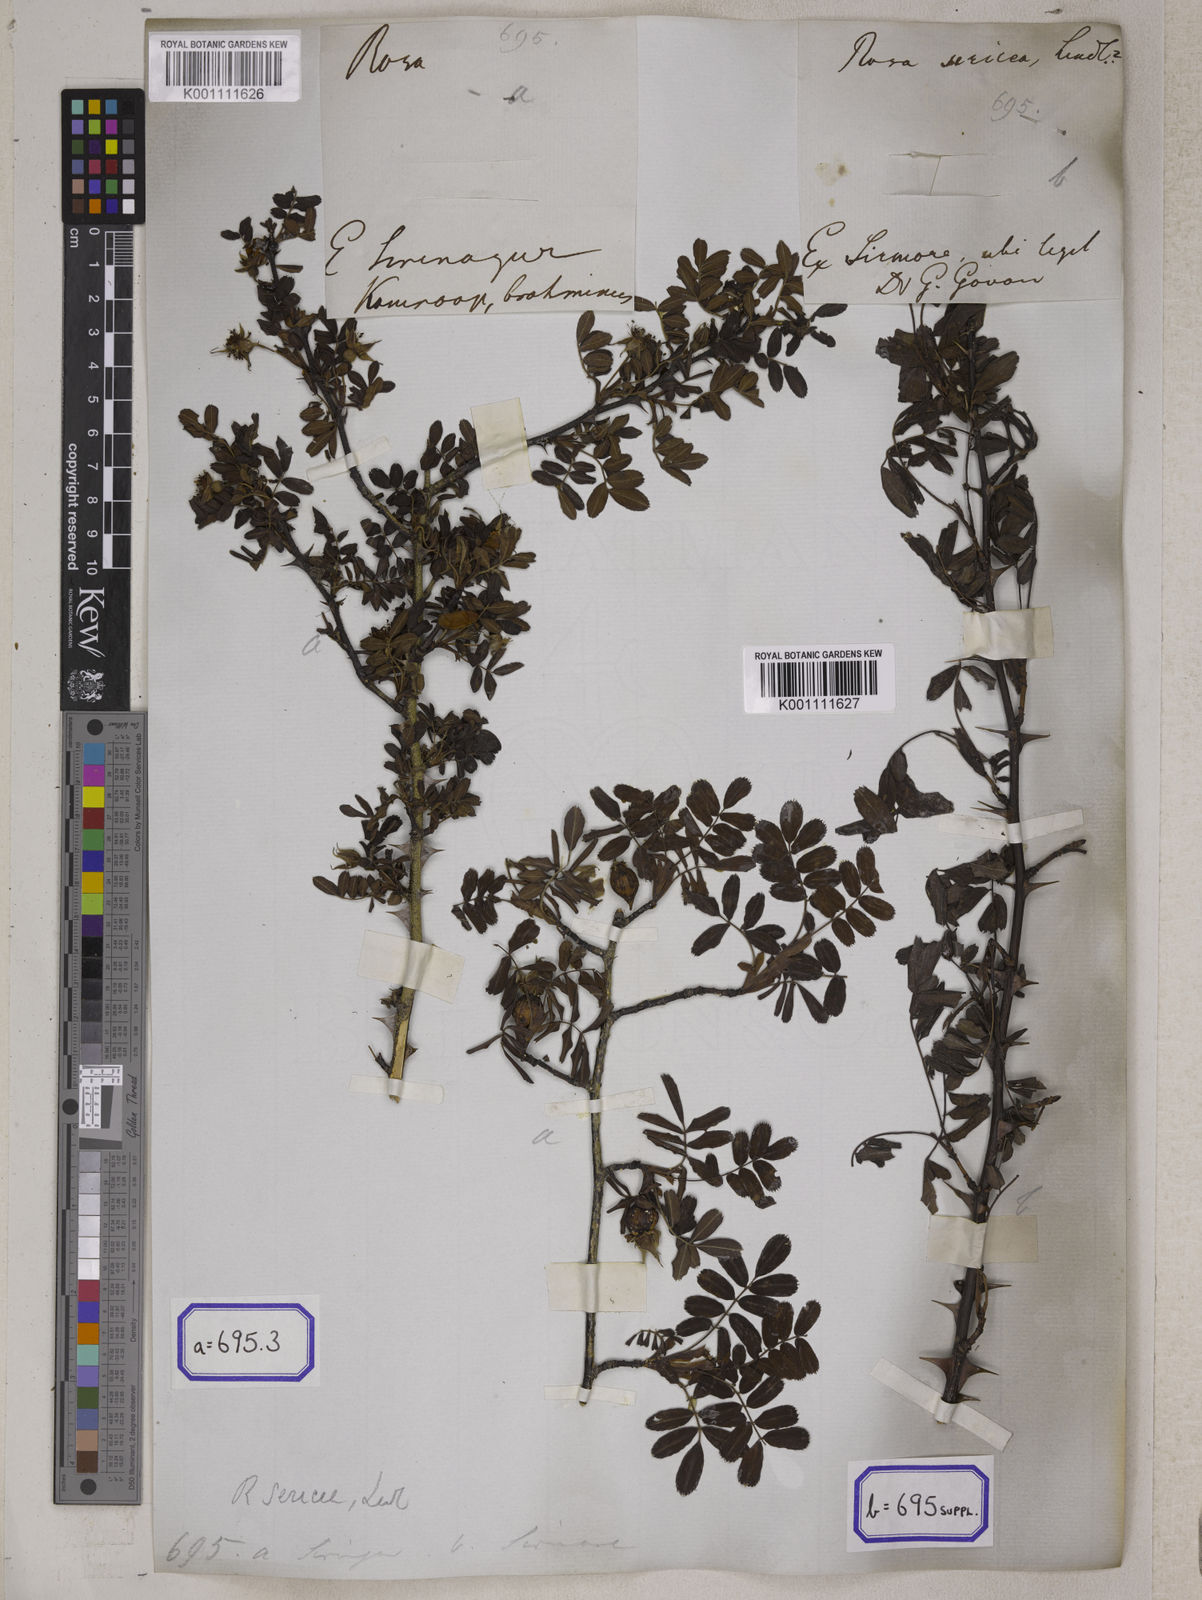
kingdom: Plantae
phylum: Tracheophyta
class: Magnoliopsida
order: Rosales
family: Rosaceae
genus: Rosa
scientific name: Rosa sericea
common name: Silky rose
